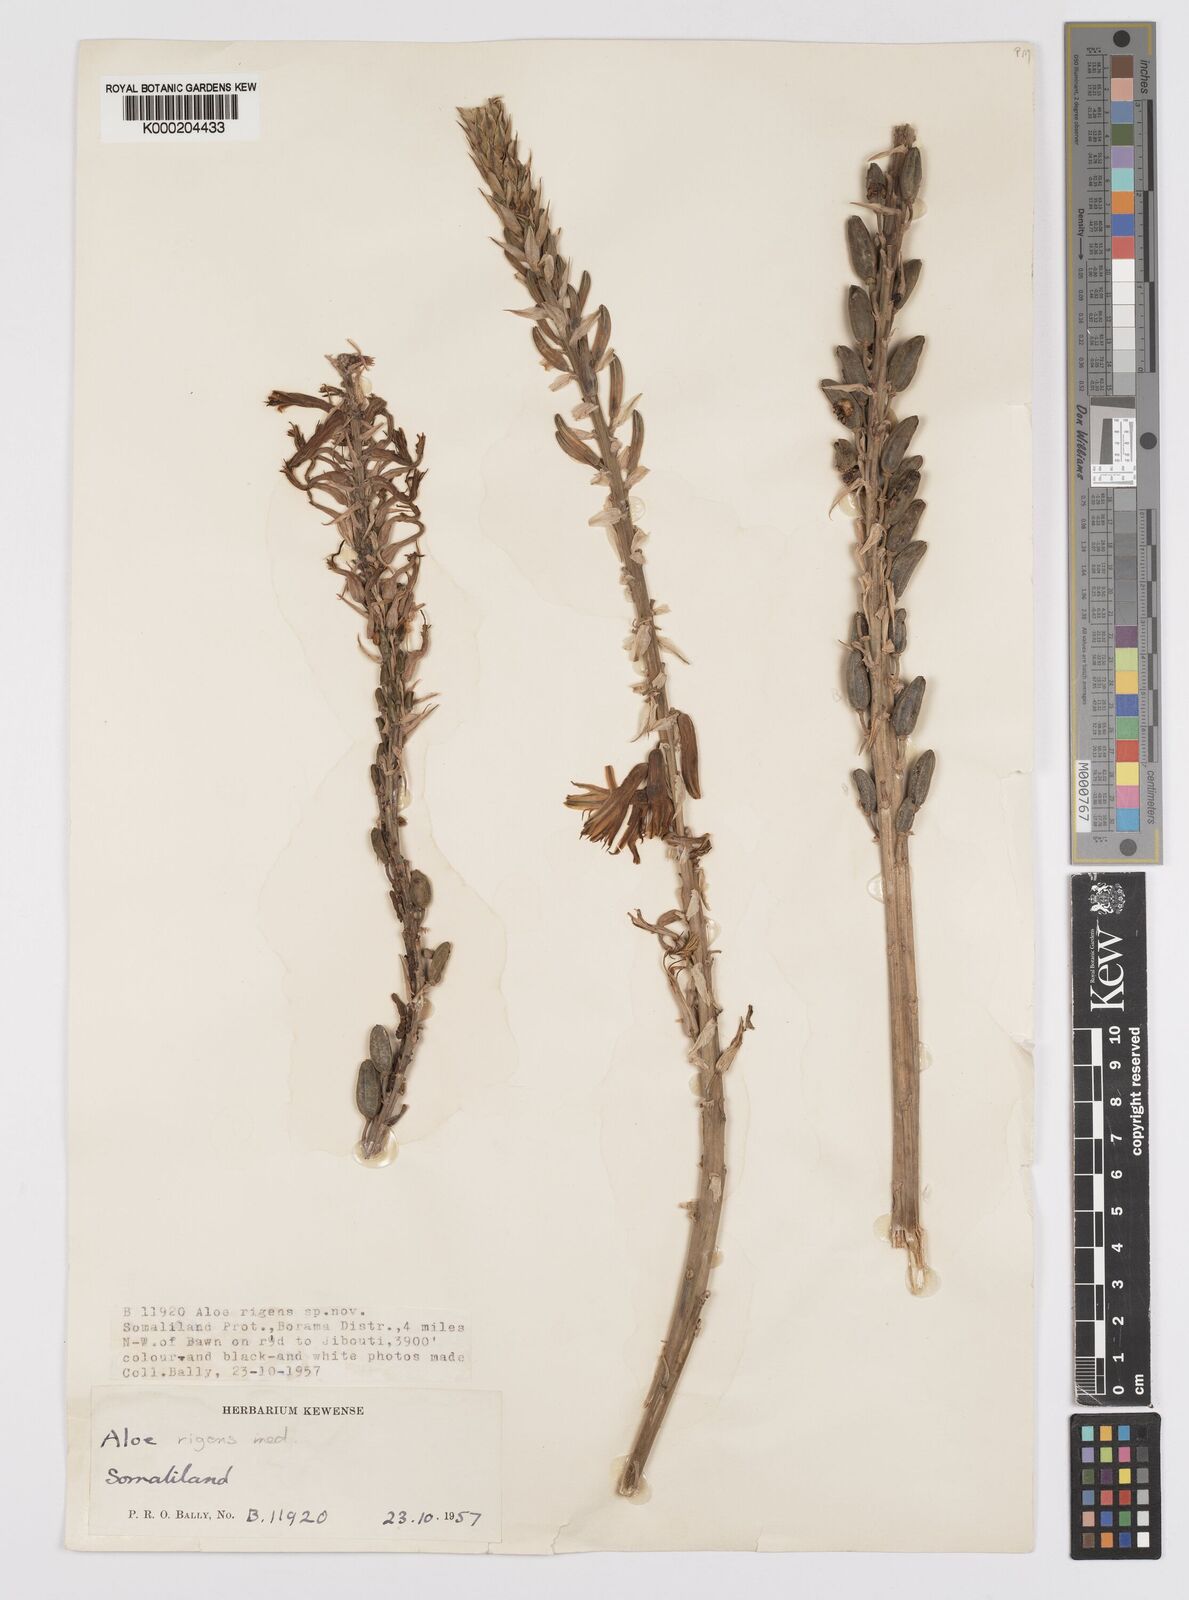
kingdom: Plantae
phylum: Tracheophyta
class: Liliopsida
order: Asparagales
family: Asphodelaceae
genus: Aloe
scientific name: Aloe rigens
